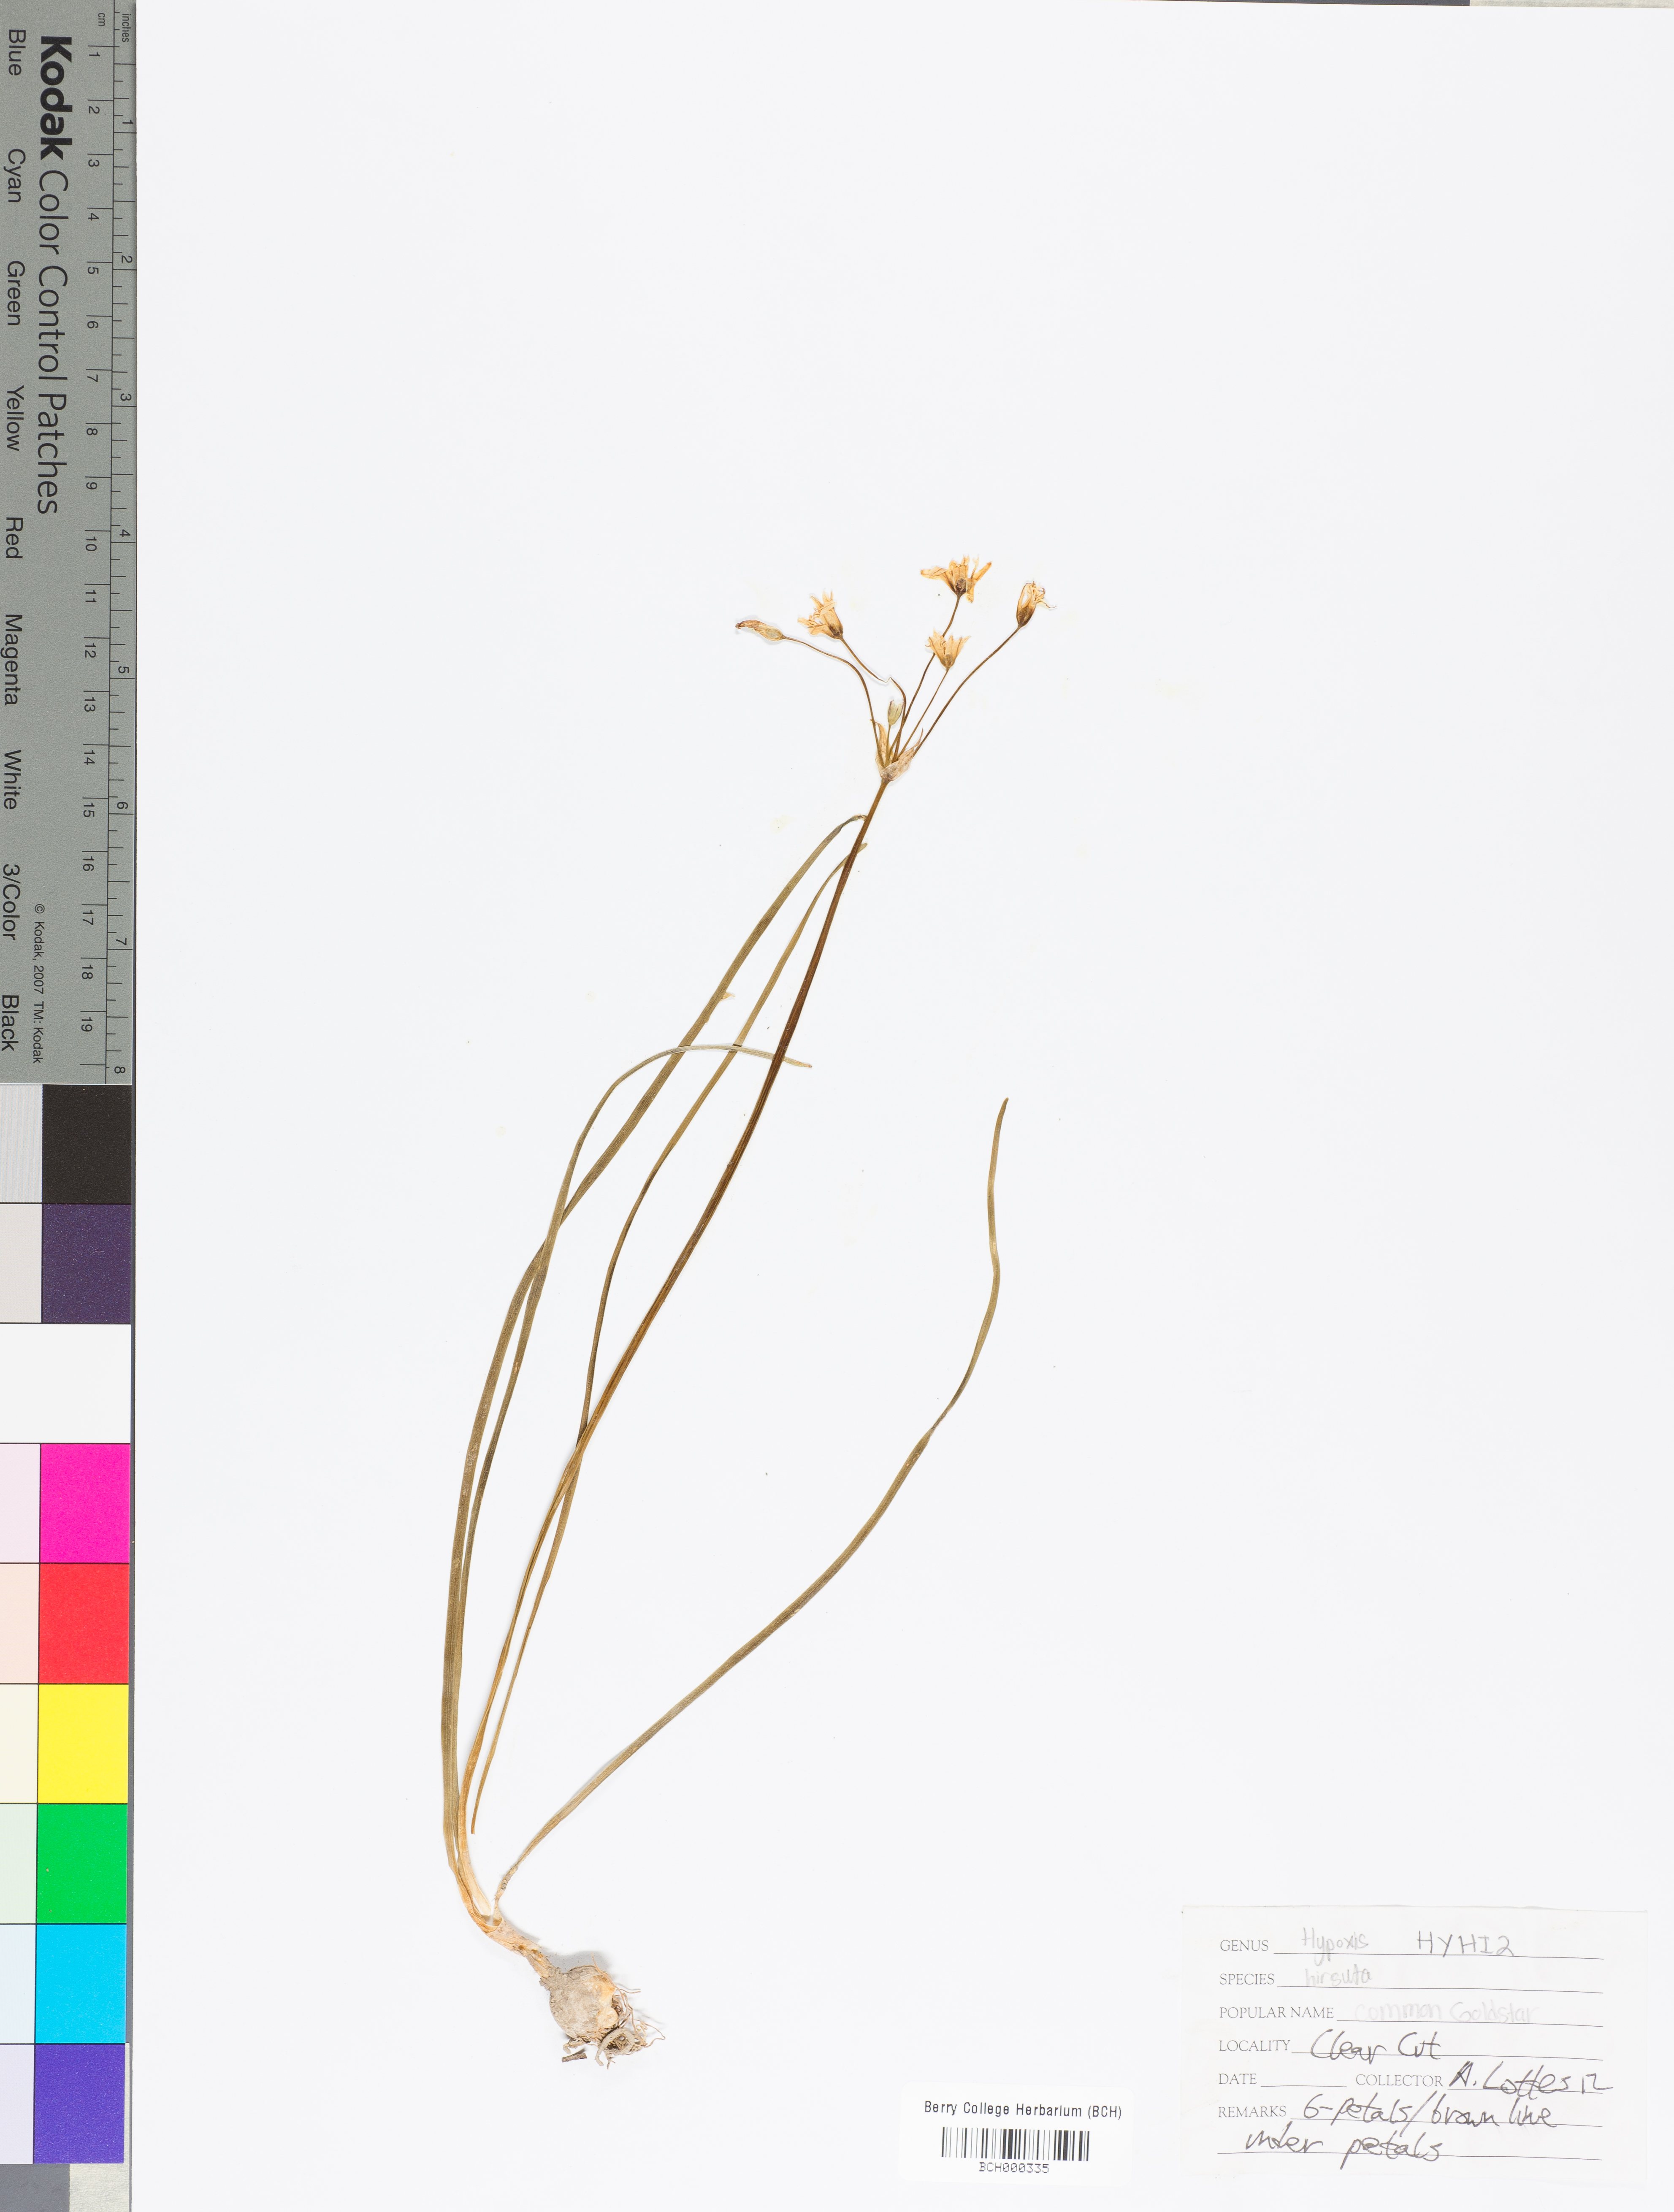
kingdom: Plantae
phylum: Tracheophyta
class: Liliopsida
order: Asparagales
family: Hypoxidaceae
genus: Hypoxis
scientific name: Hypoxis hirsuta
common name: Common goldstar
